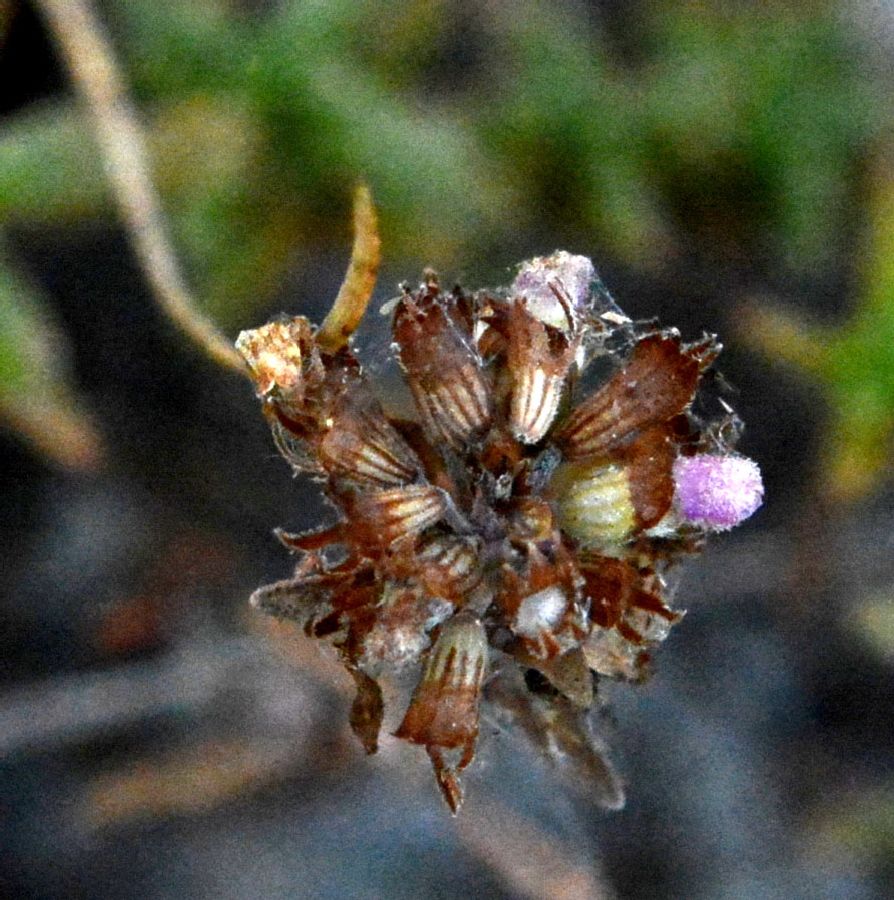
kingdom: Plantae
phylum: Tracheophyta
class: Magnoliopsida
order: Lamiales
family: Lamiaceae
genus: Thymus
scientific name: Thymus calcareus
